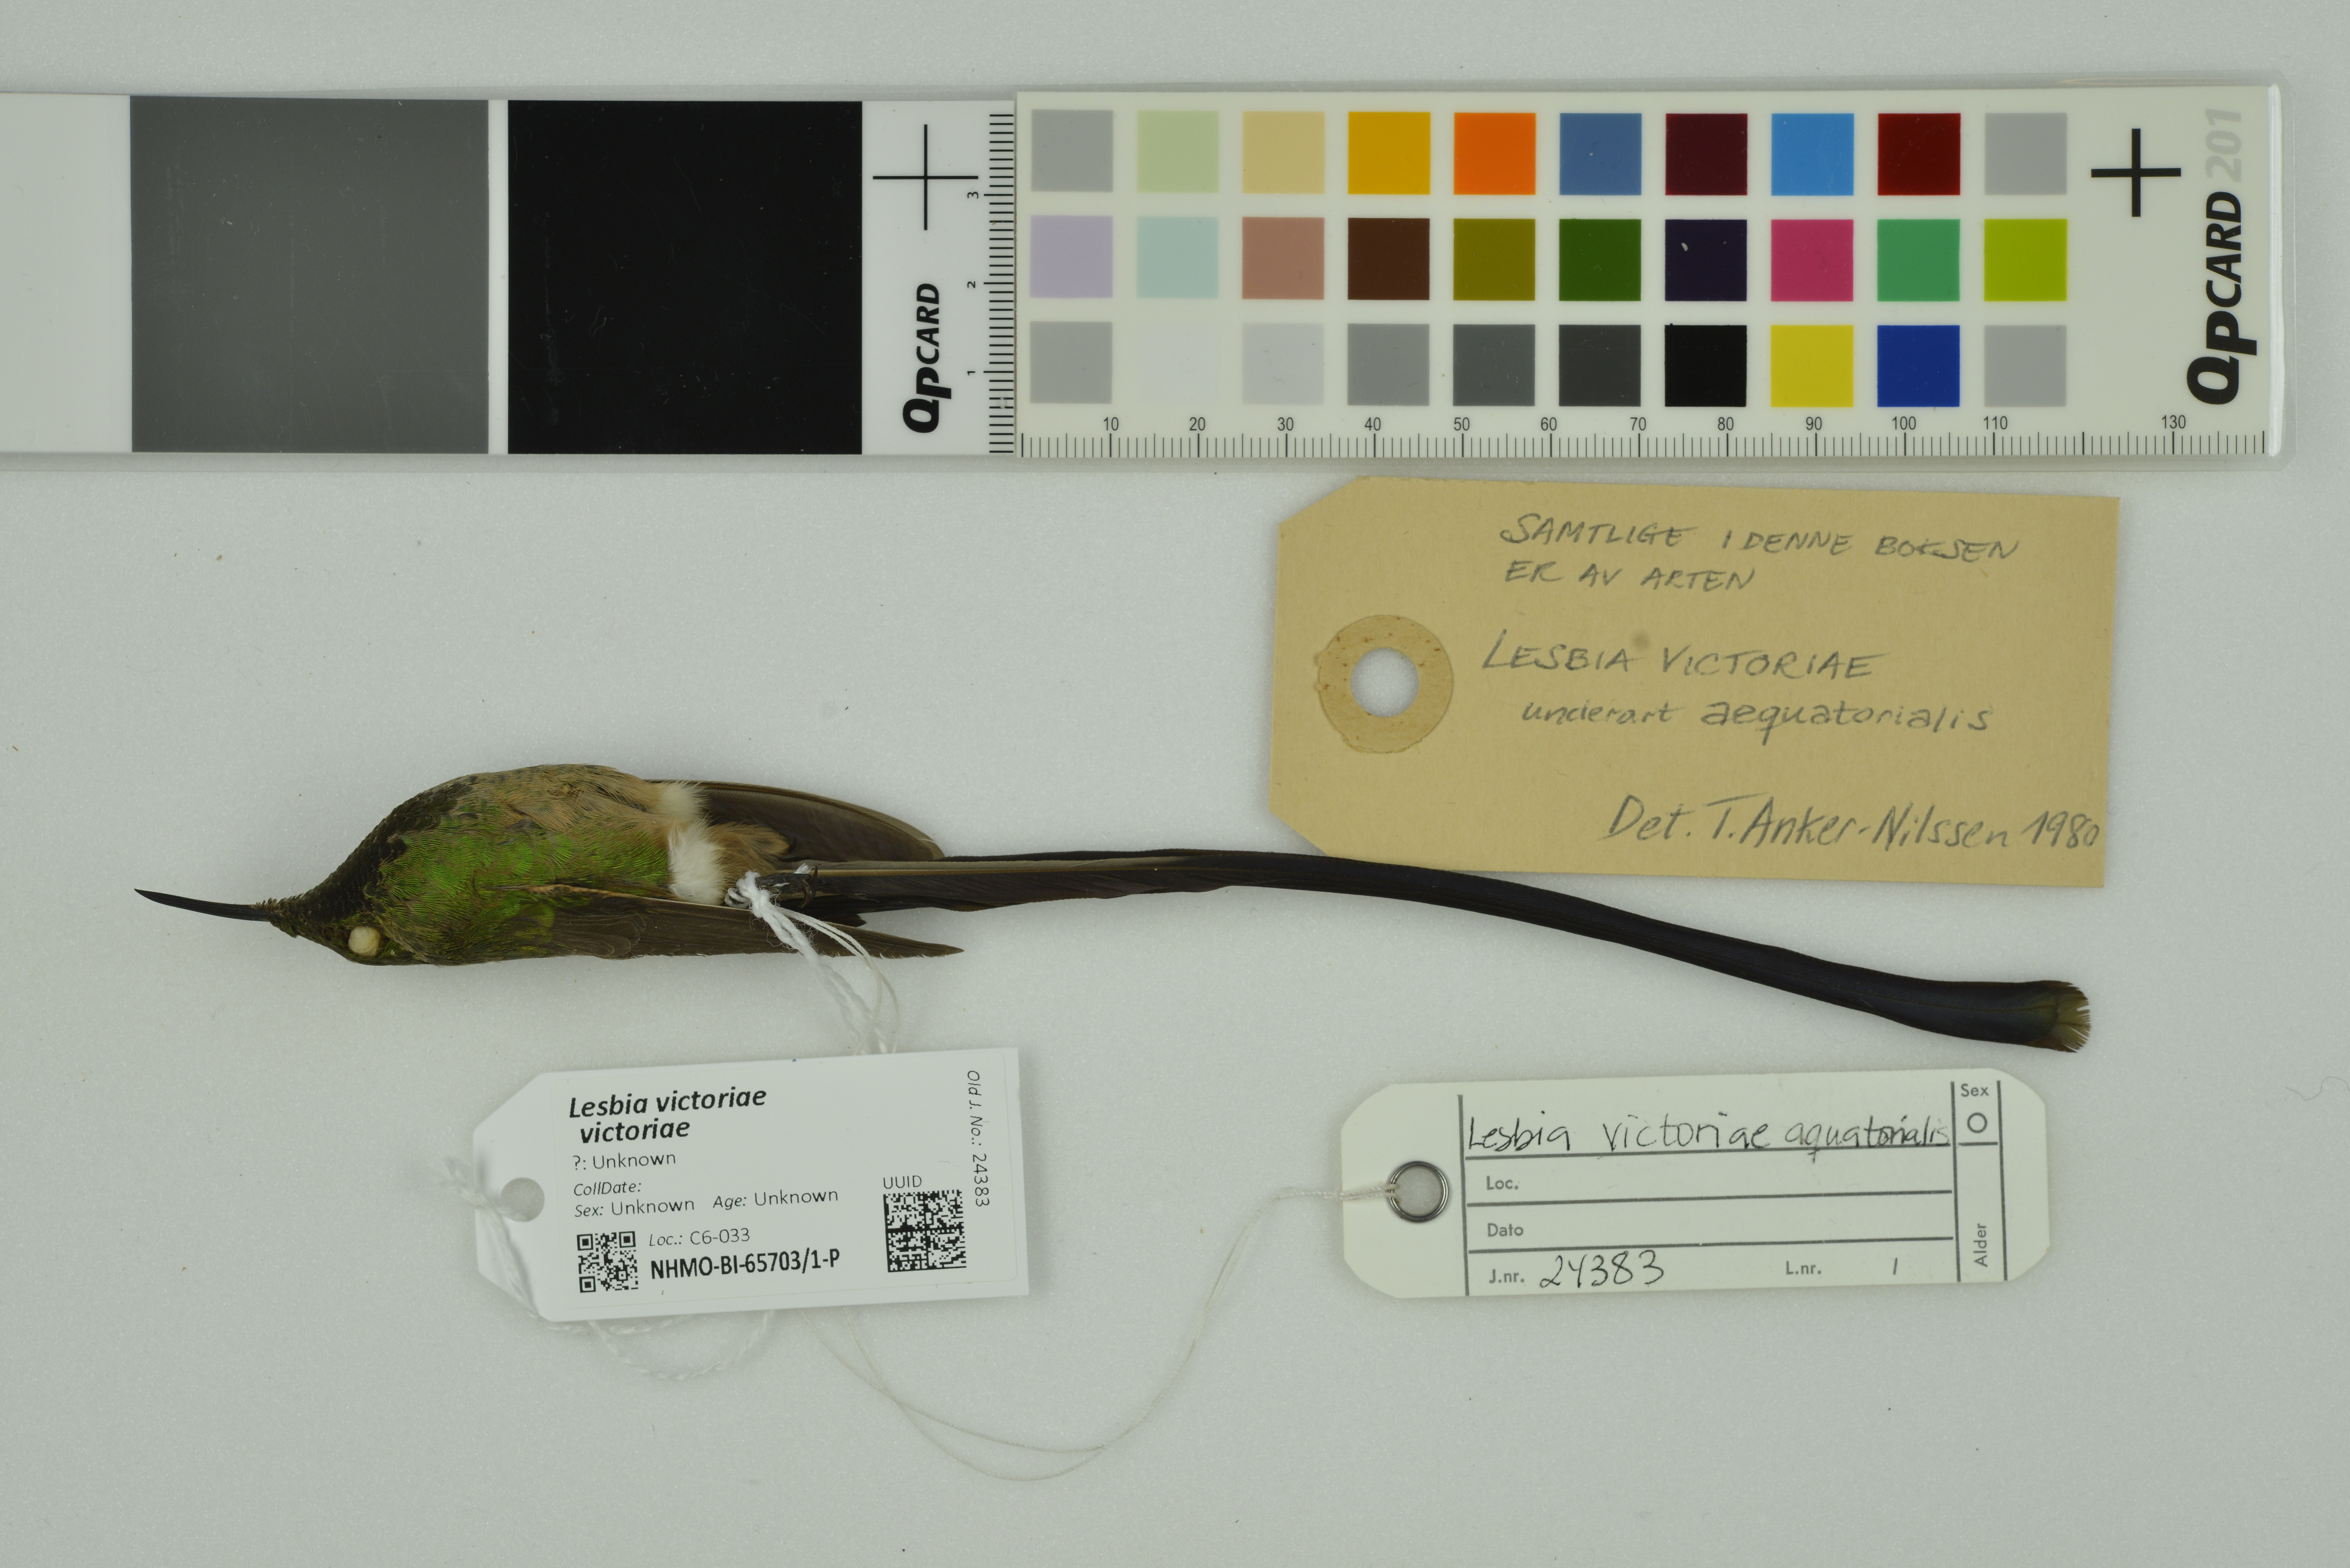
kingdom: Animalia
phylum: Chordata
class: Aves
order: Apodiformes
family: Trochilidae
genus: Lesbia
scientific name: Lesbia victoriae
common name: Black-tailed trainbearer
